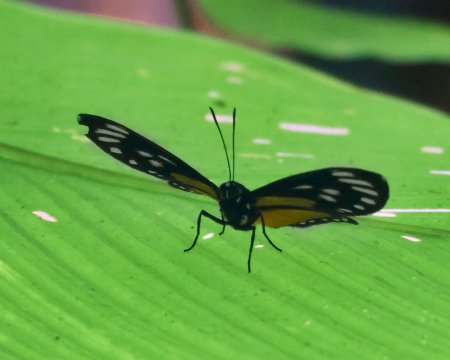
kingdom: Animalia
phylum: Arthropoda
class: Insecta
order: Lepidoptera
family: Riodinidae
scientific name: Riodinidae
